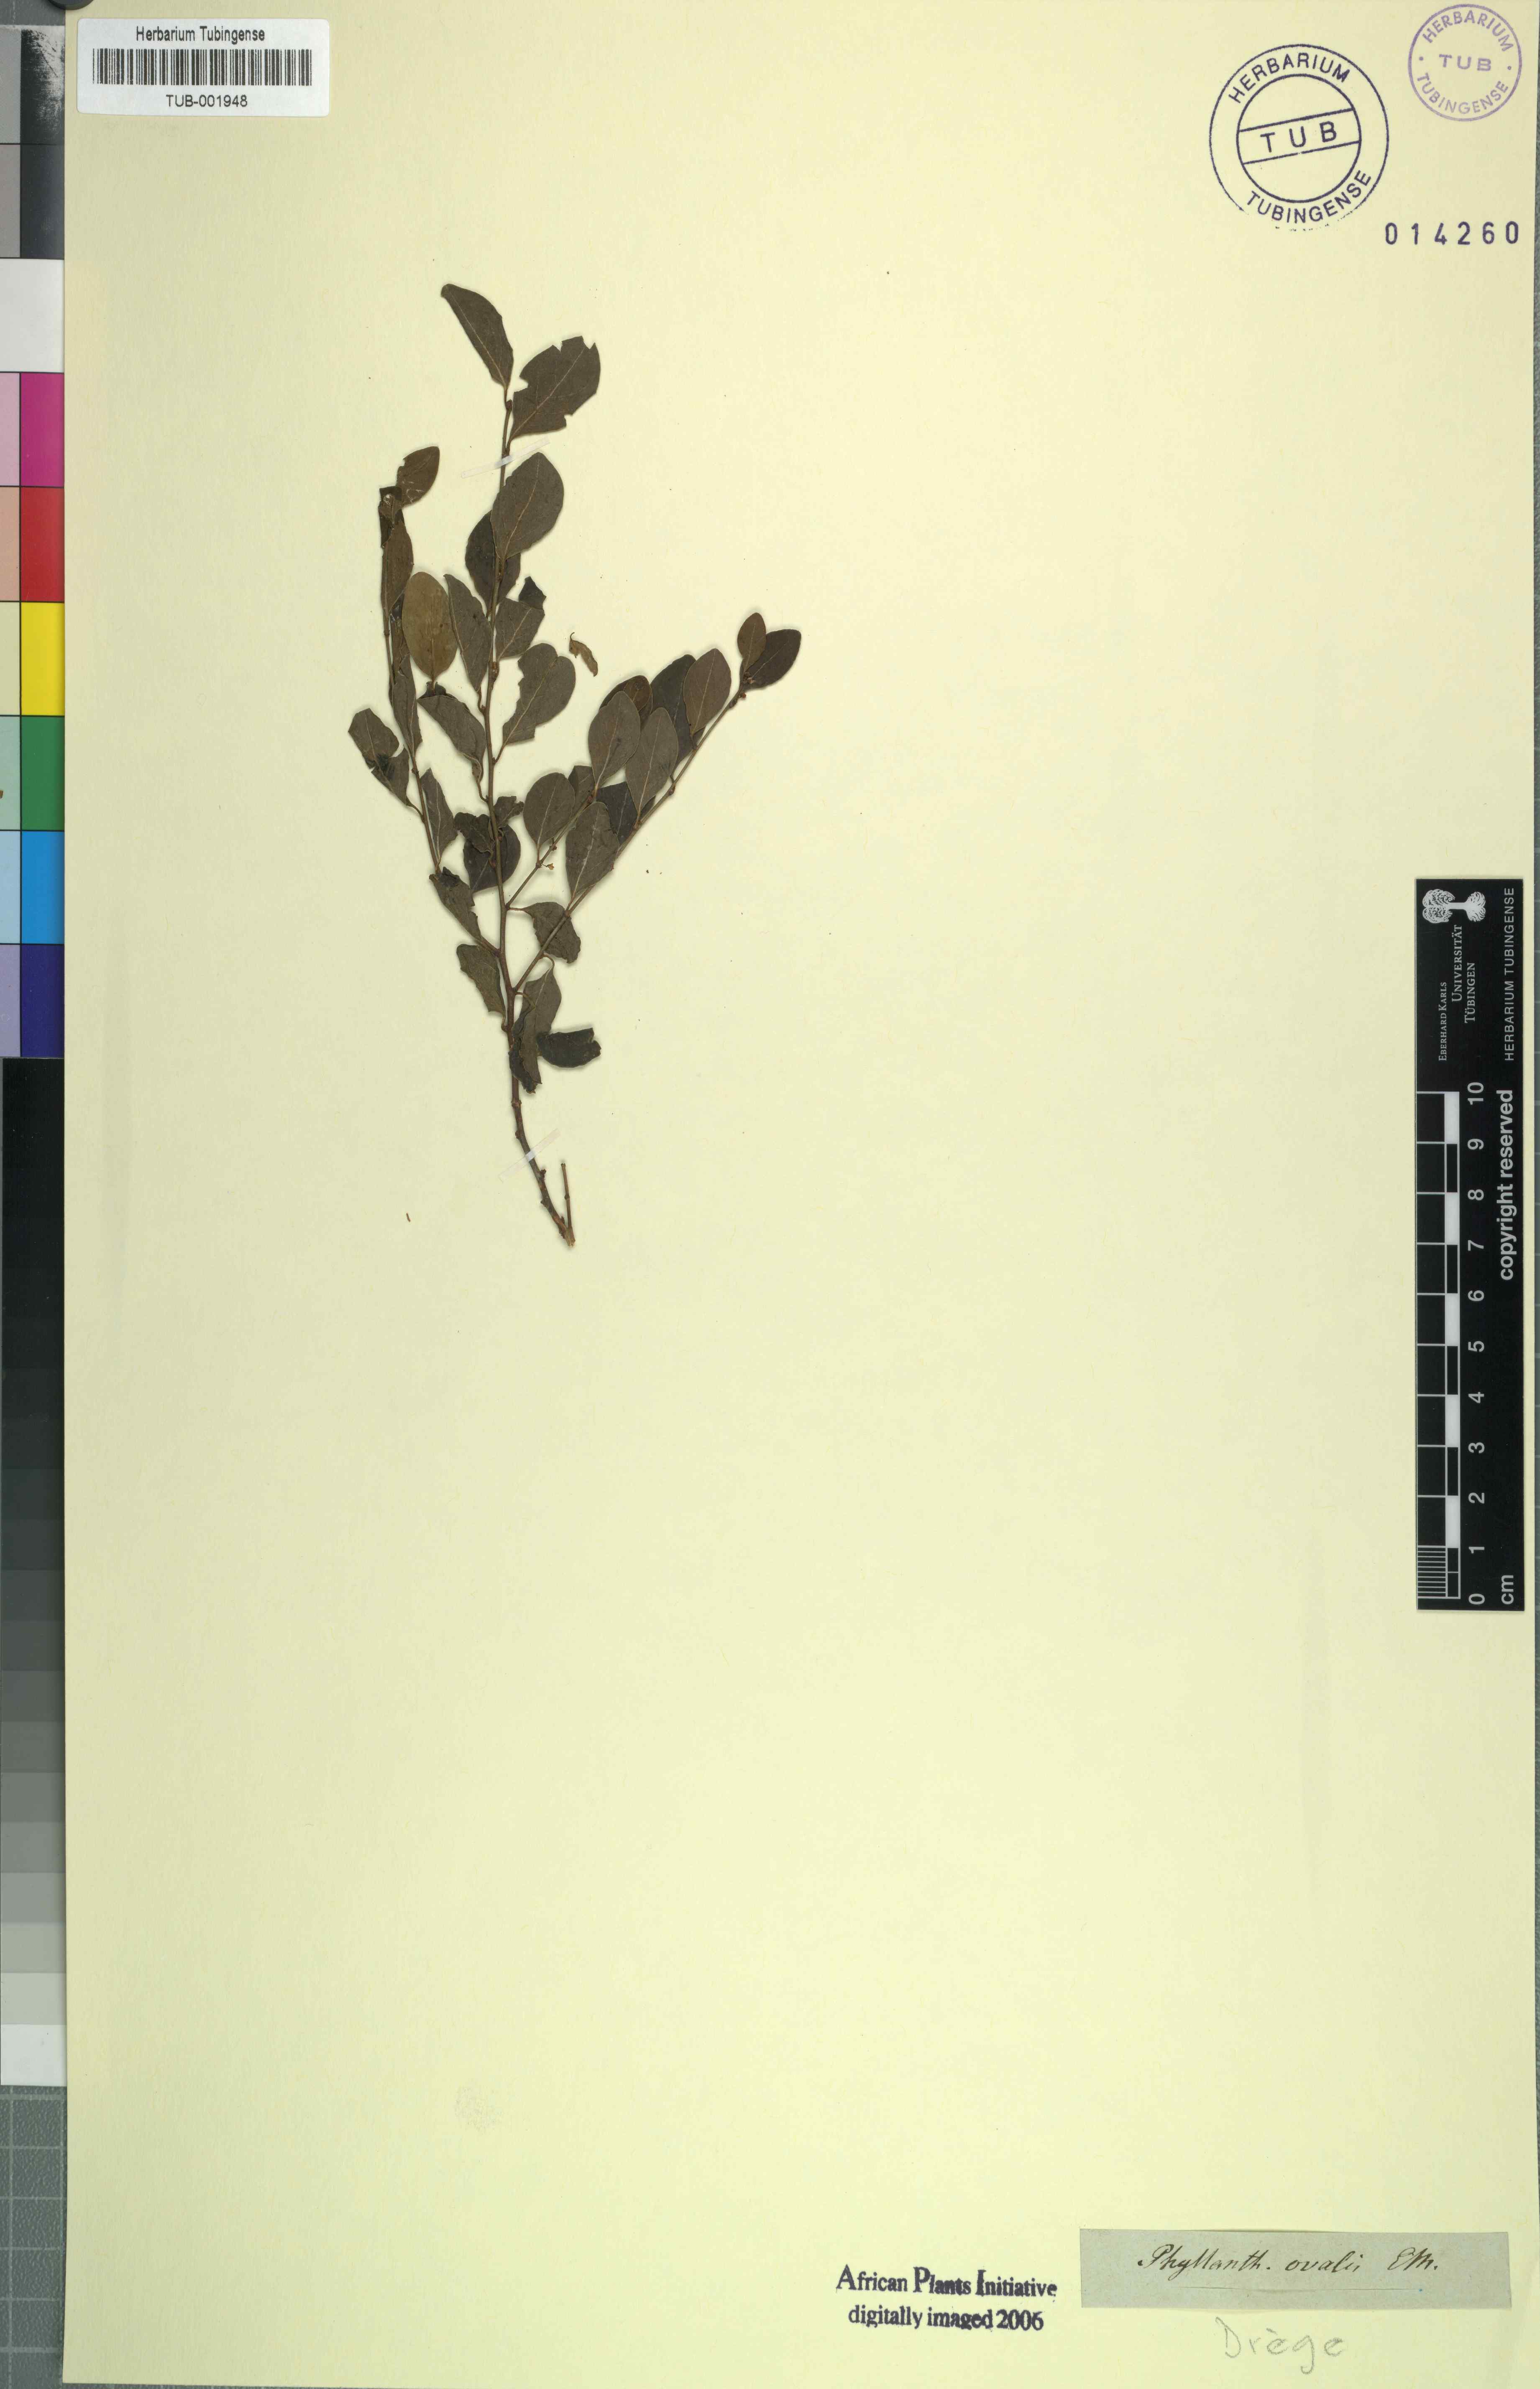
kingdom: Plantae
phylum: Tracheophyta
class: Magnoliopsida
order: Malpighiales
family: Phyllanthaceae
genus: Pseudophyllanthus
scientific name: Pseudophyllanthus ovalis
